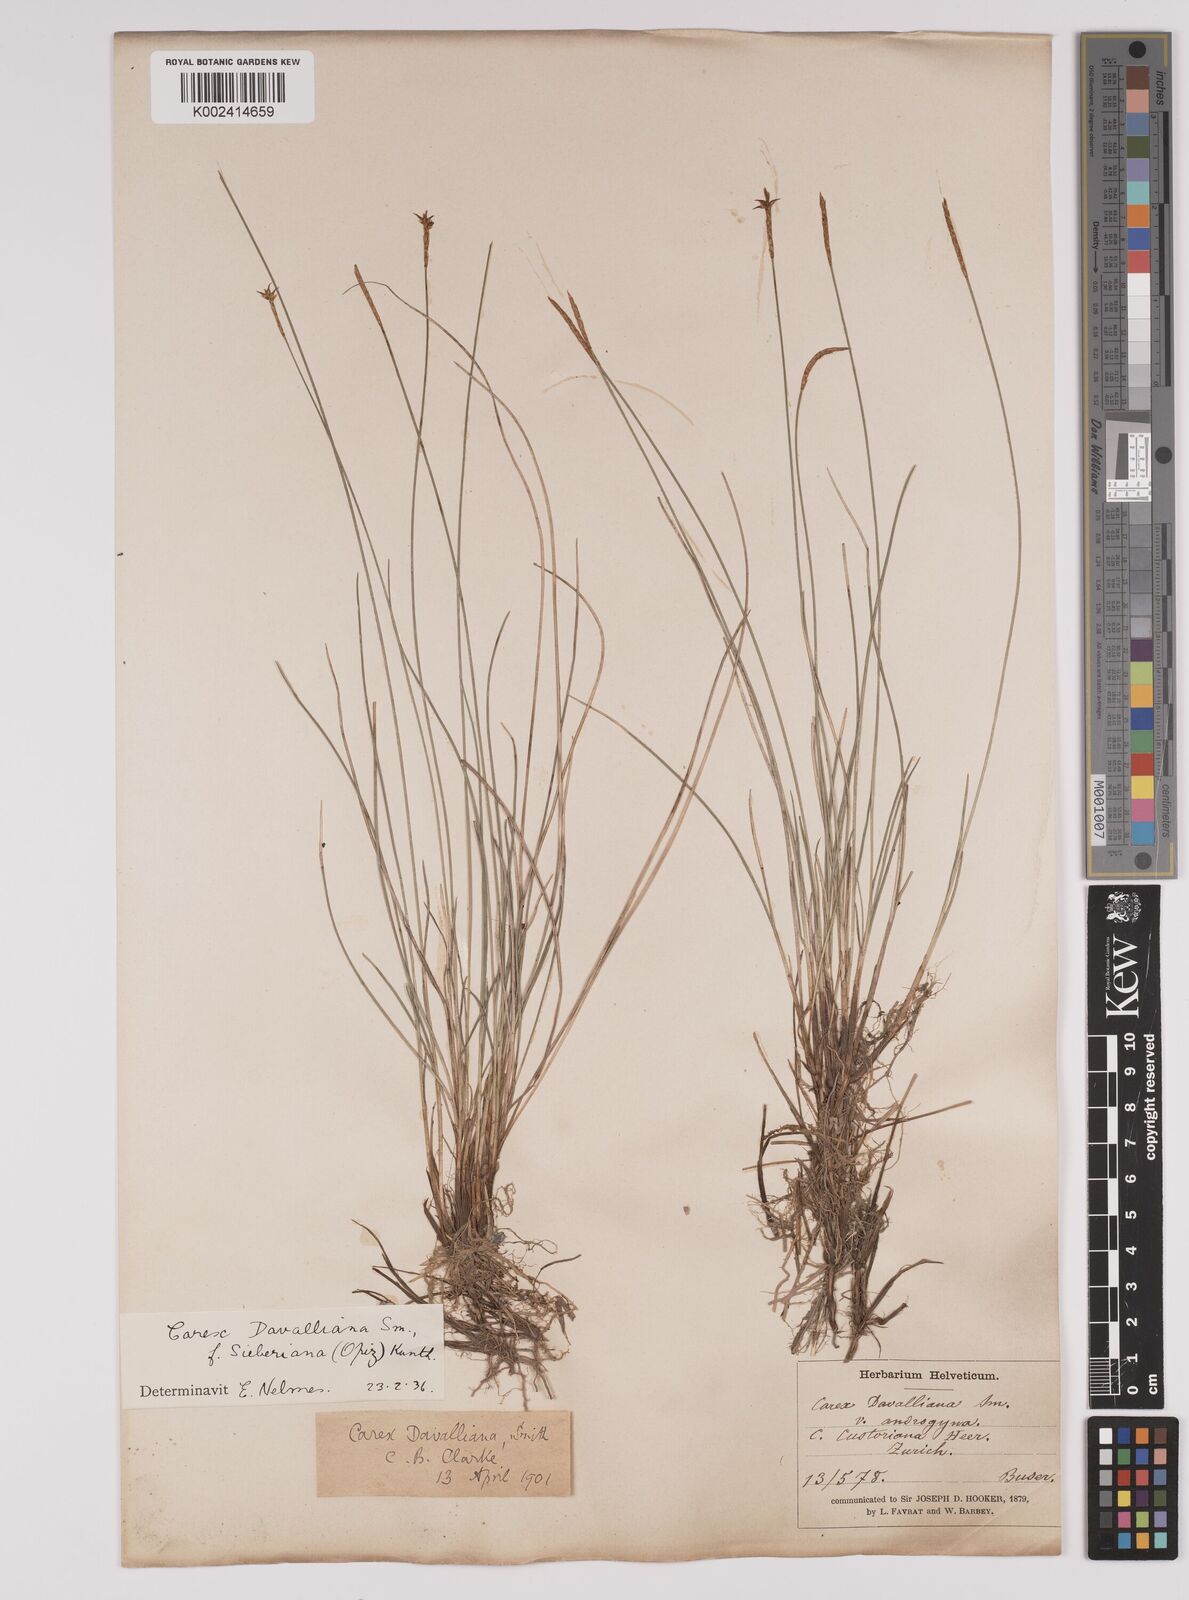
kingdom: Plantae
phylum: Tracheophyta
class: Liliopsida
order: Poales
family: Cyperaceae
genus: Carex
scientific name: Carex davalliana
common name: Davall's sedge
